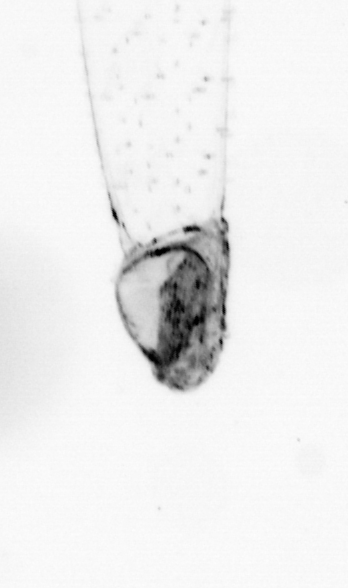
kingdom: Animalia
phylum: Chaetognatha
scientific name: Chaetognatha
